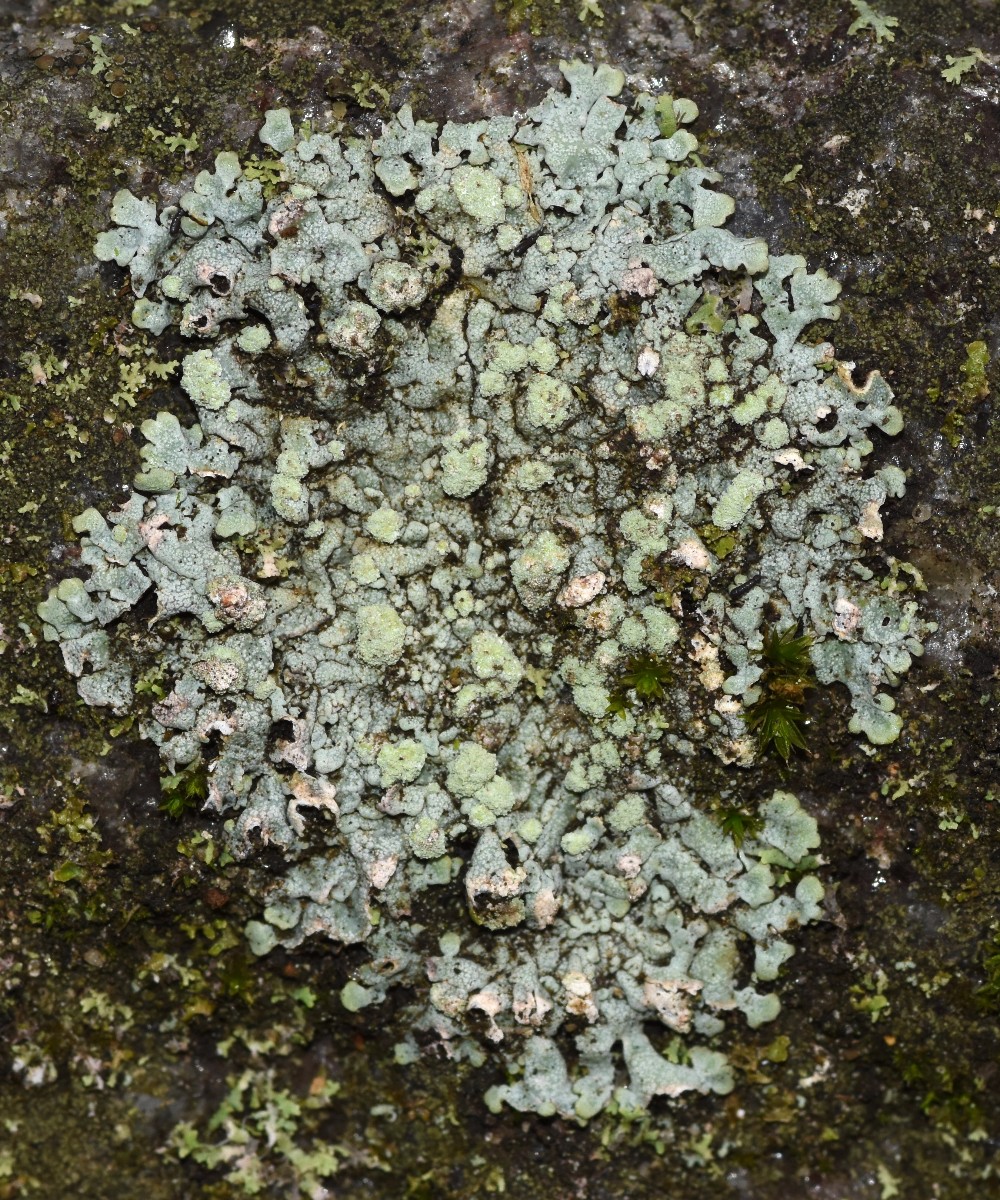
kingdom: Fungi
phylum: Ascomycota
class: Lecanoromycetes
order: Caliciales
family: Physciaceae
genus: Physcia
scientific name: Physcia caesia
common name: blågrå rosetlav
